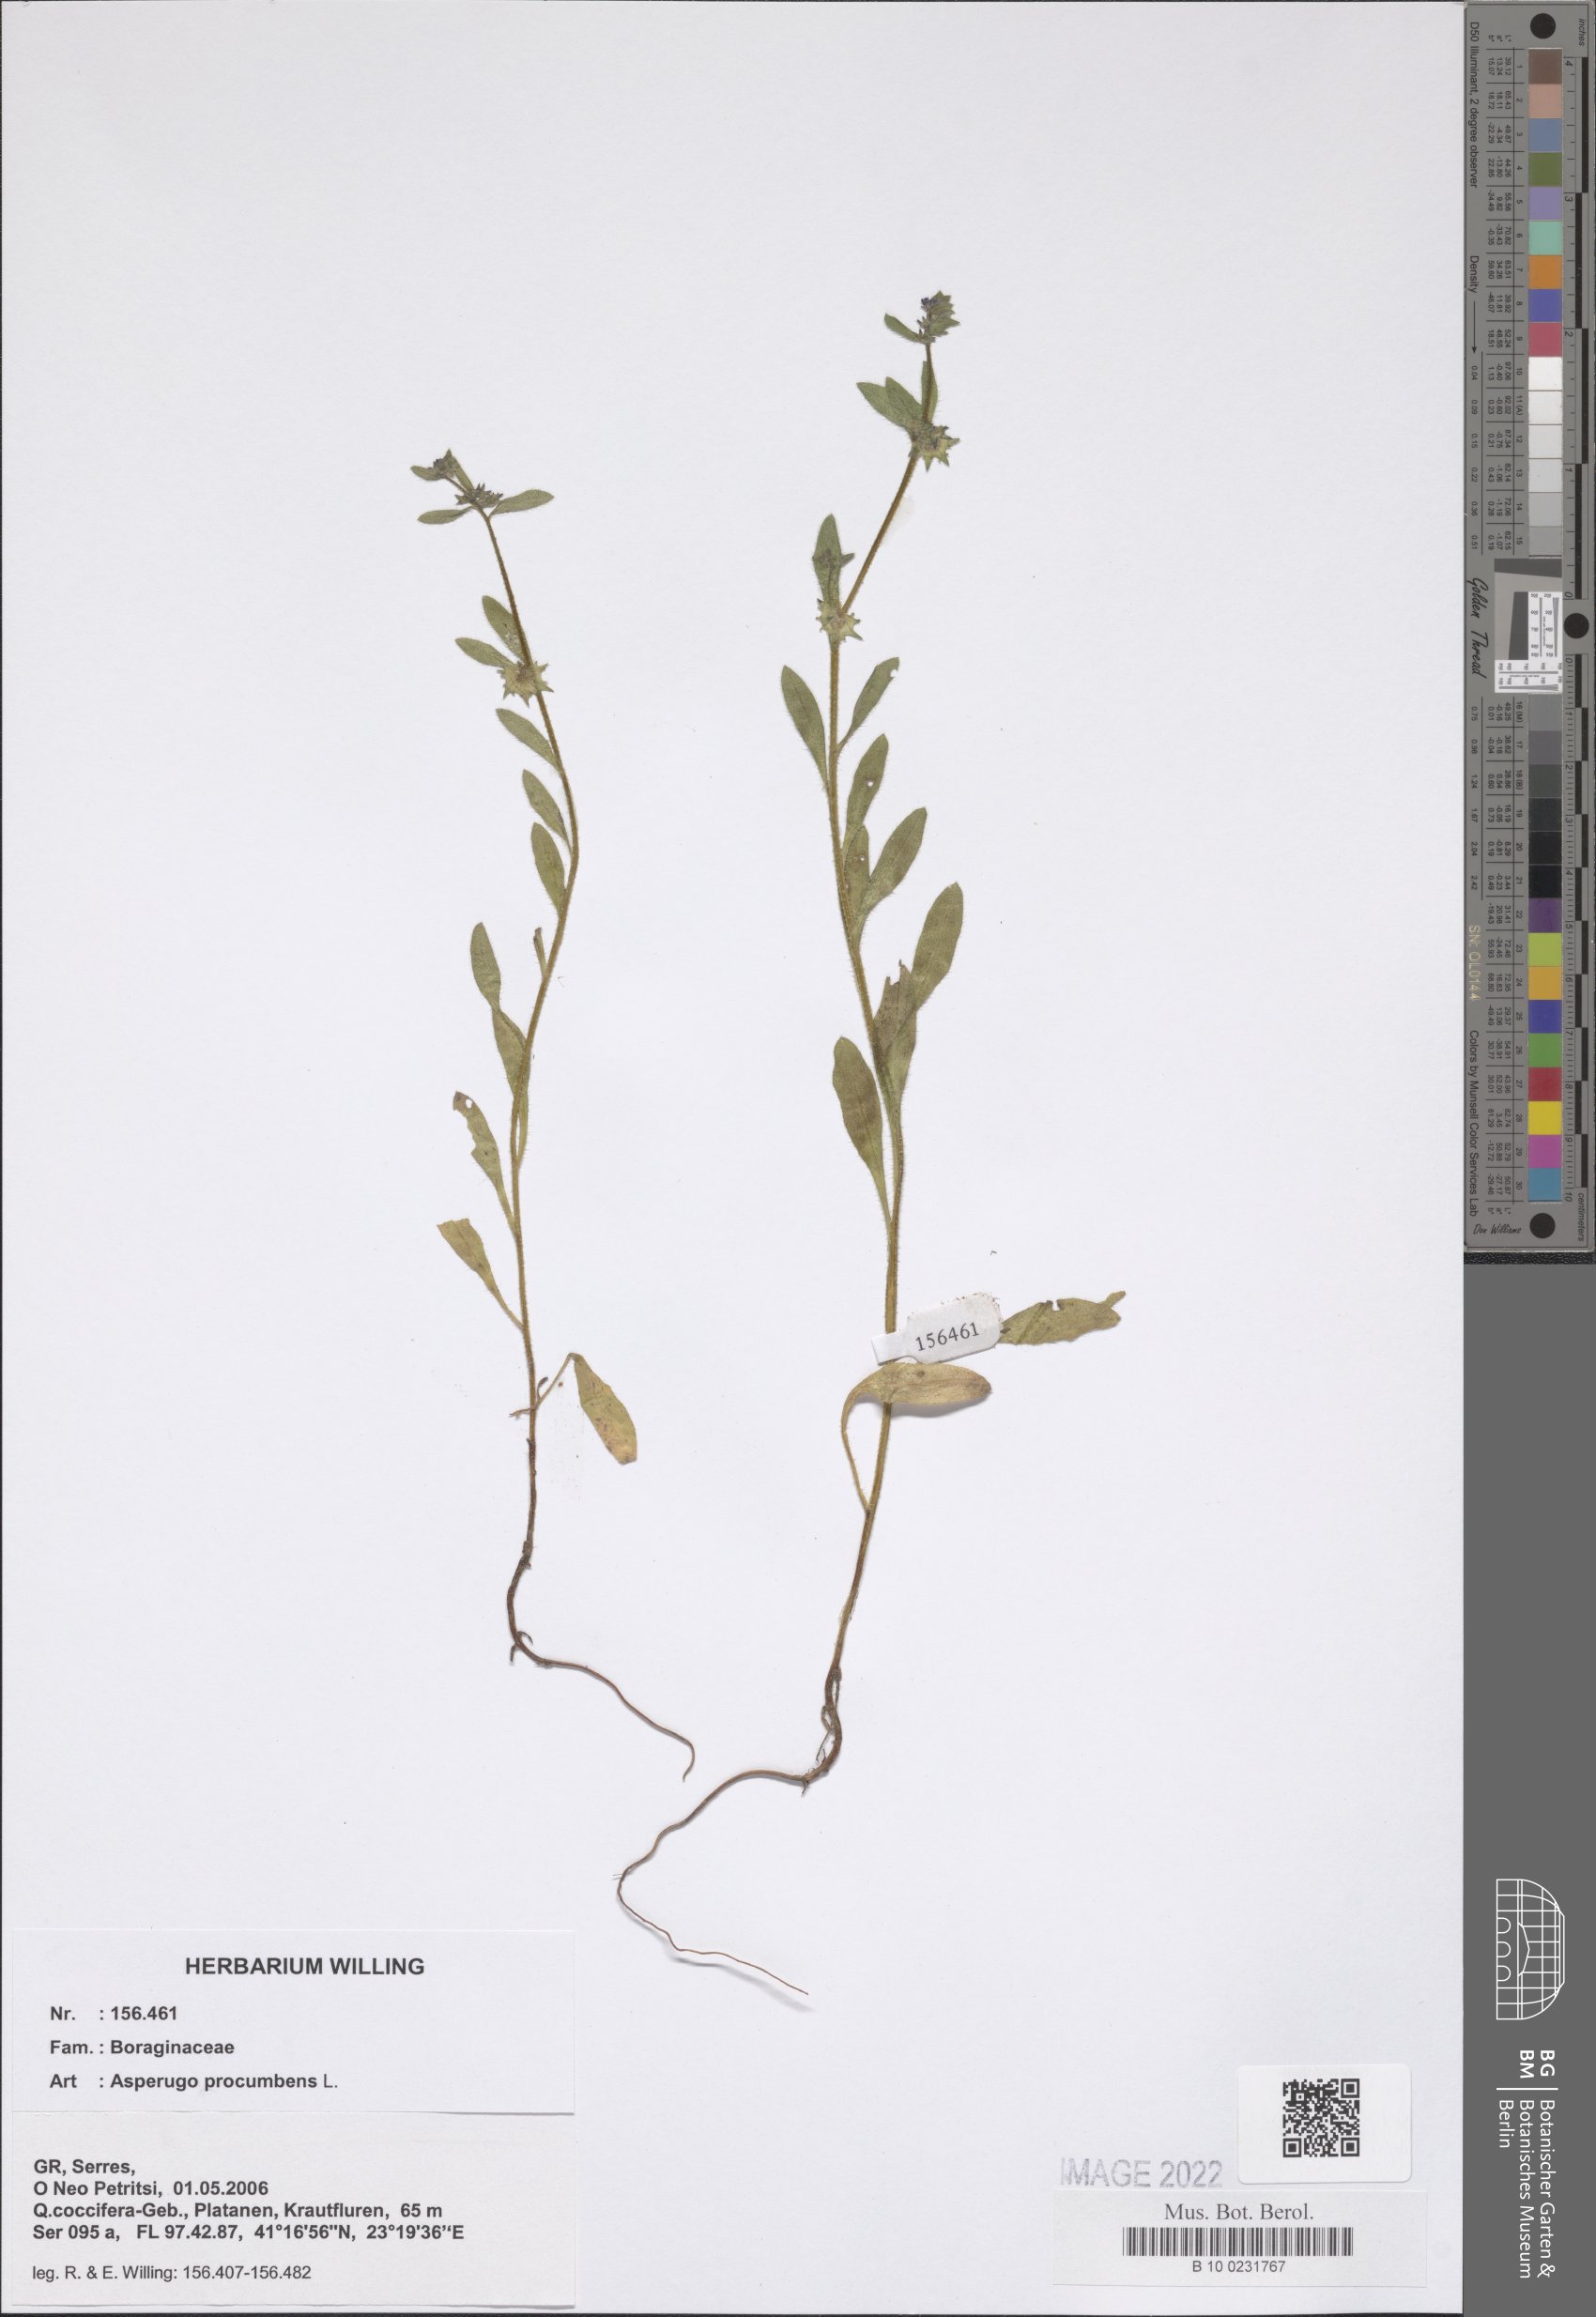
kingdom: Plantae
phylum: Tracheophyta
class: Magnoliopsida
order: Boraginales
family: Boraginaceae
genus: Asperugo
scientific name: Asperugo procumbens
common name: Madwort
